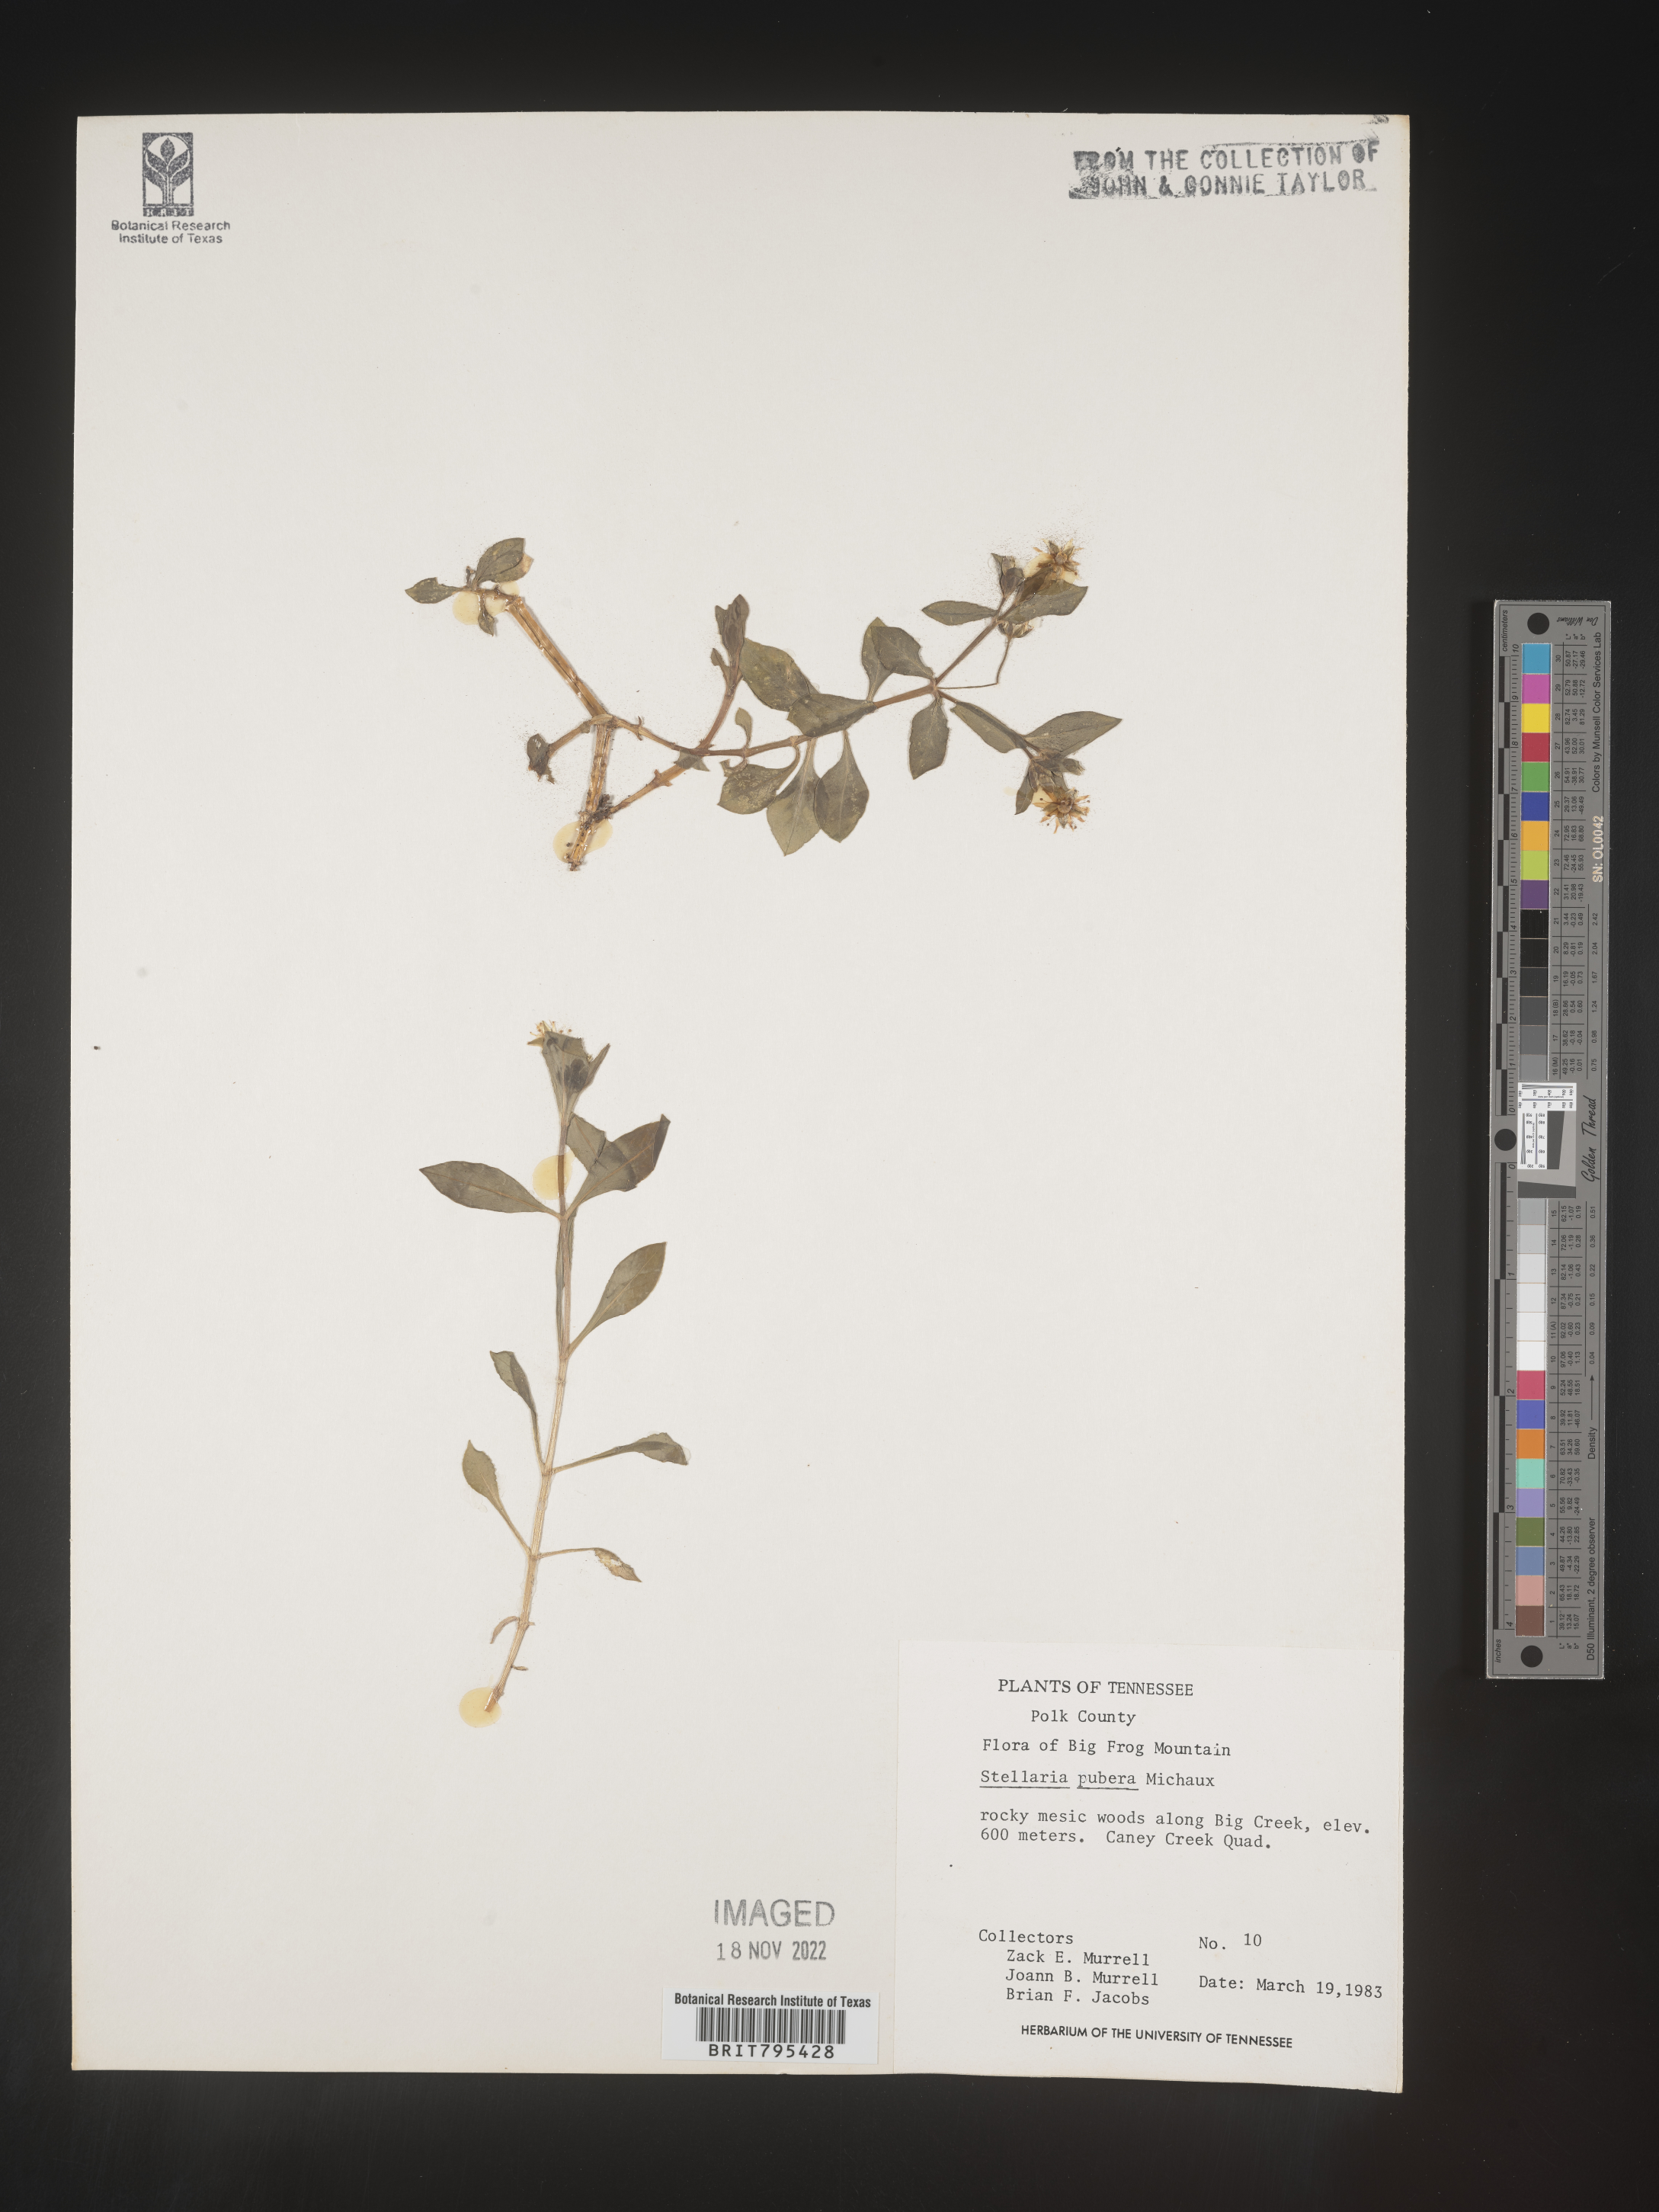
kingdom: Plantae
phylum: Tracheophyta
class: Magnoliopsida
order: Caryophyllales
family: Caryophyllaceae
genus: Stellaria
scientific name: Stellaria pubera
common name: Star chickweed
